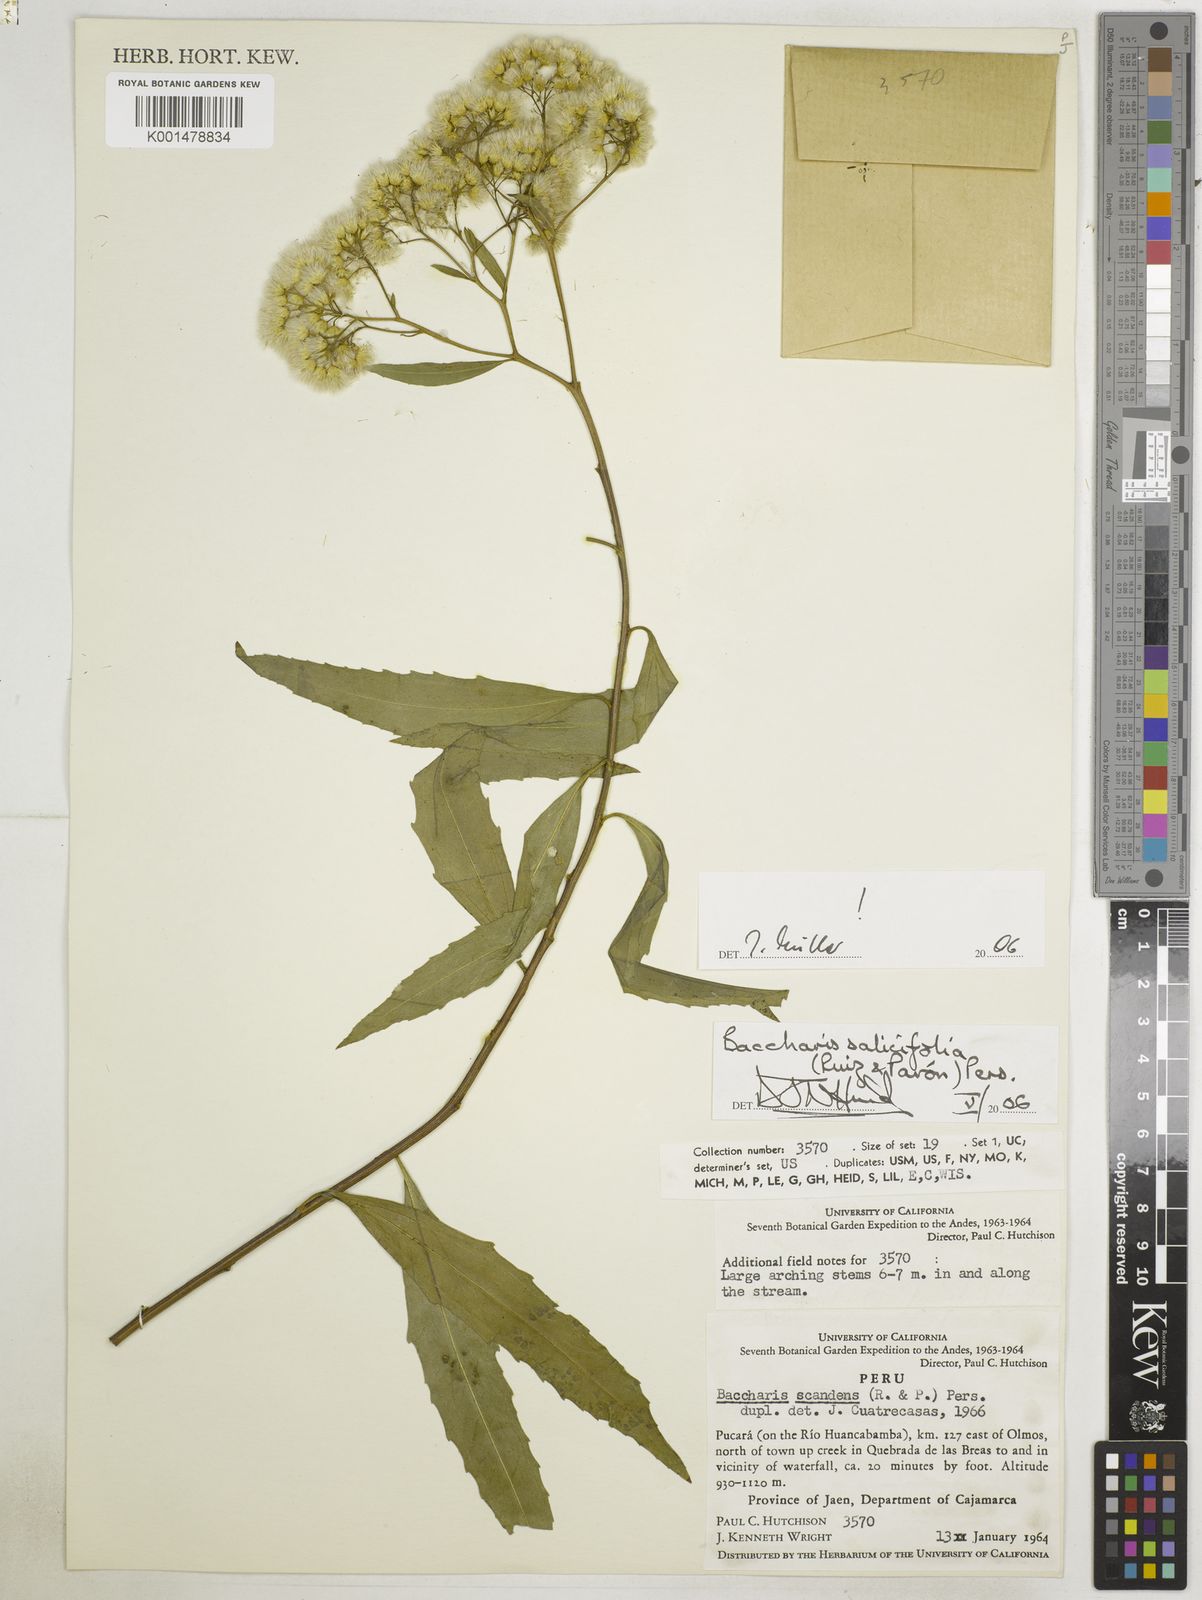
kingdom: Plantae
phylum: Tracheophyta
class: Magnoliopsida
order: Asterales
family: Asteraceae
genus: Baccharis
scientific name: Baccharis salicifolia
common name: Sticky baccharis
